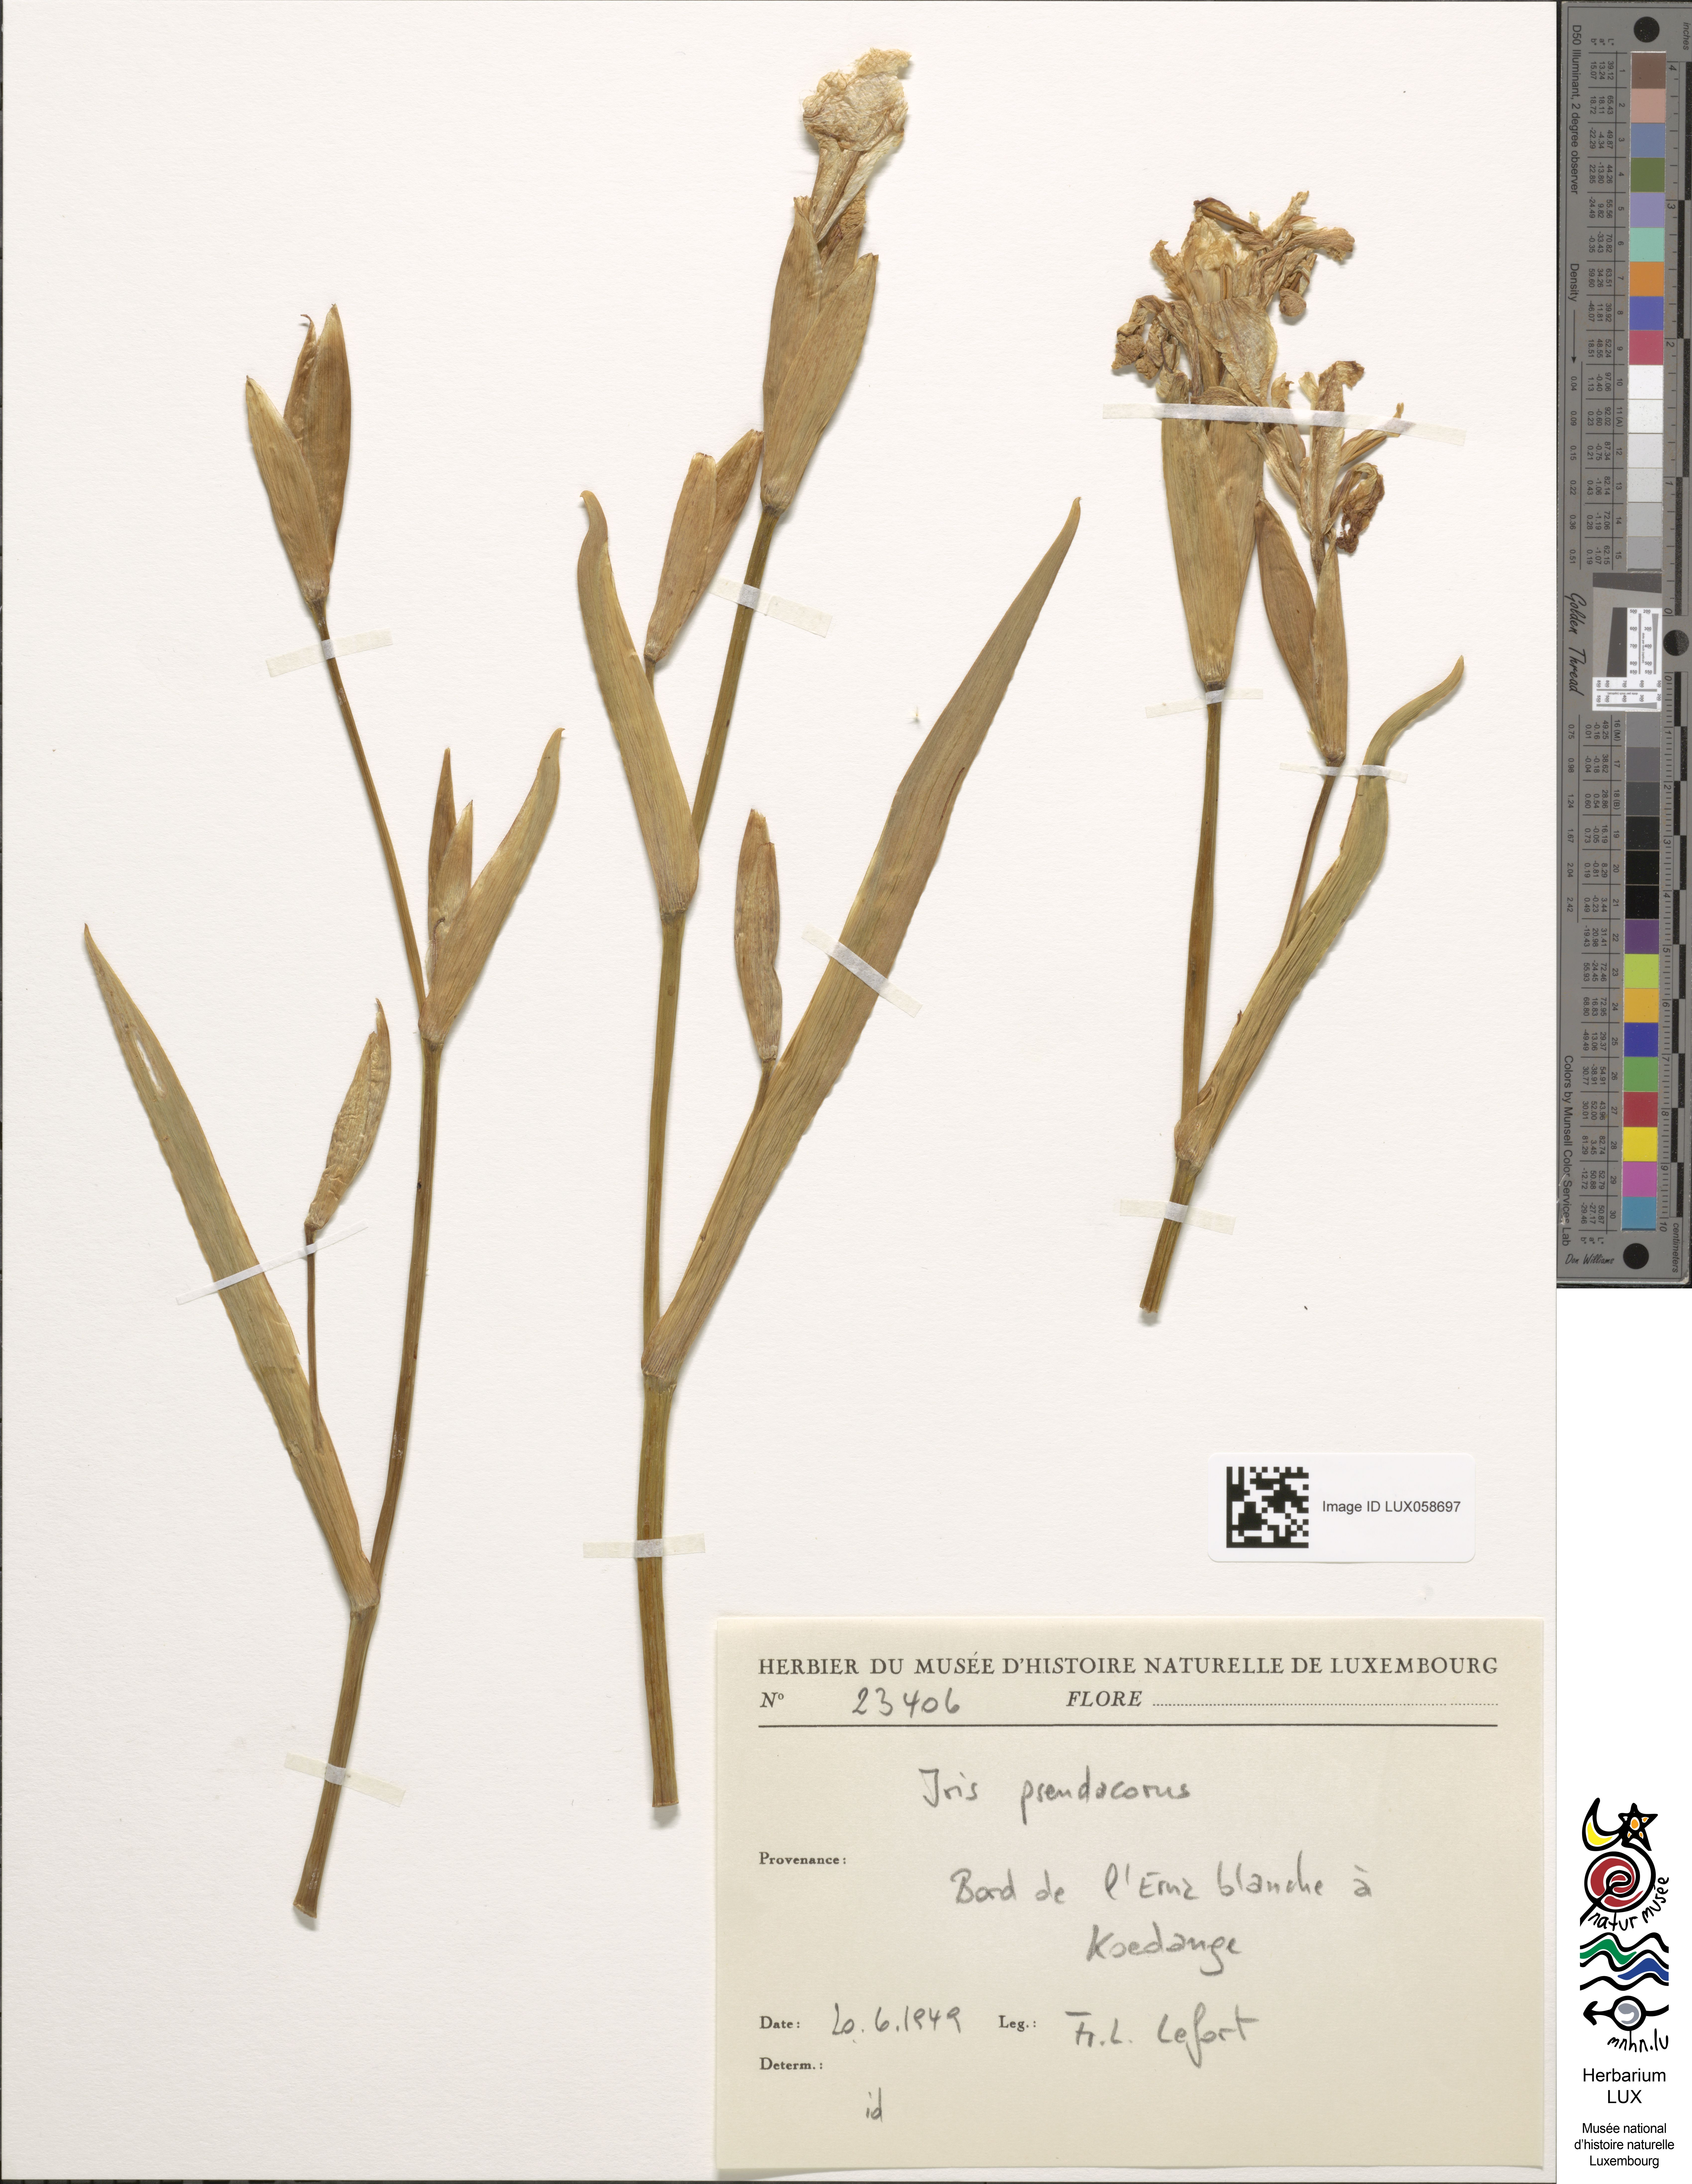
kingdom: Plantae
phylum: Tracheophyta
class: Liliopsida
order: Asparagales
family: Iridaceae
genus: Iris
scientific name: Iris pseudacorus
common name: Yellow flag
